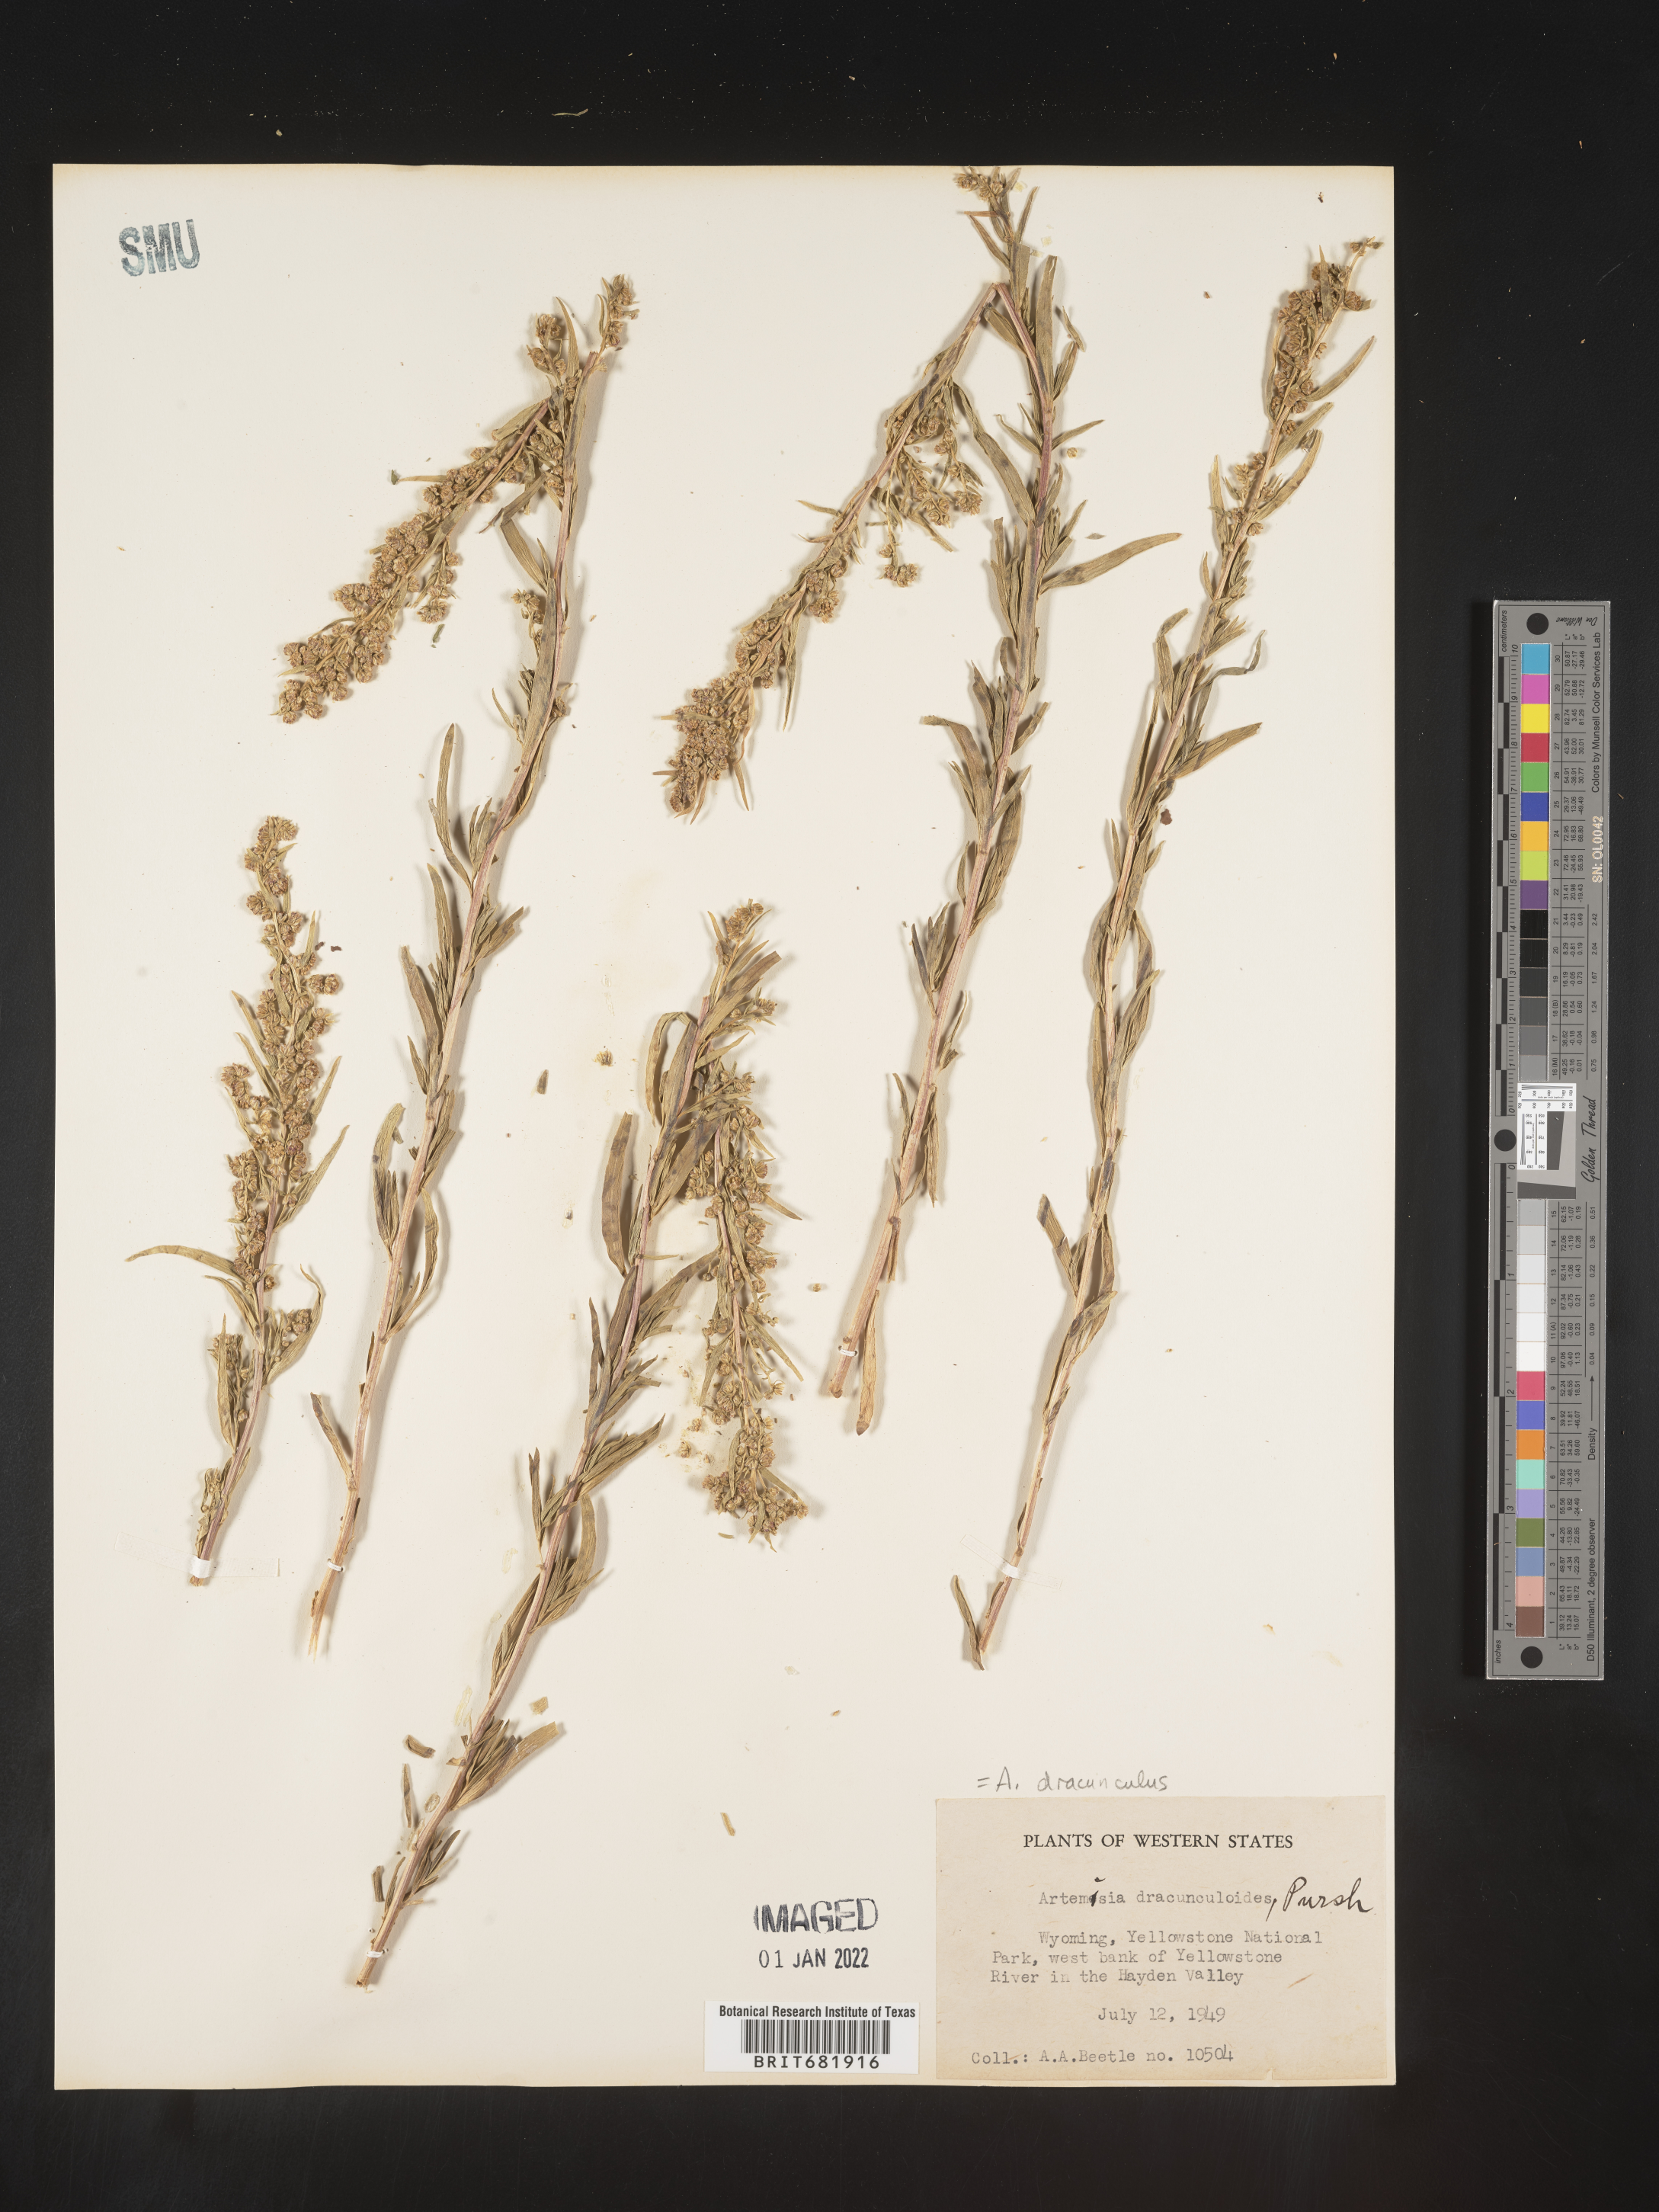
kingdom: Plantae
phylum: Tracheophyta
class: Magnoliopsida
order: Asterales
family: Asteraceae
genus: Artemisia
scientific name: Artemisia dracunculus
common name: Tarragon
